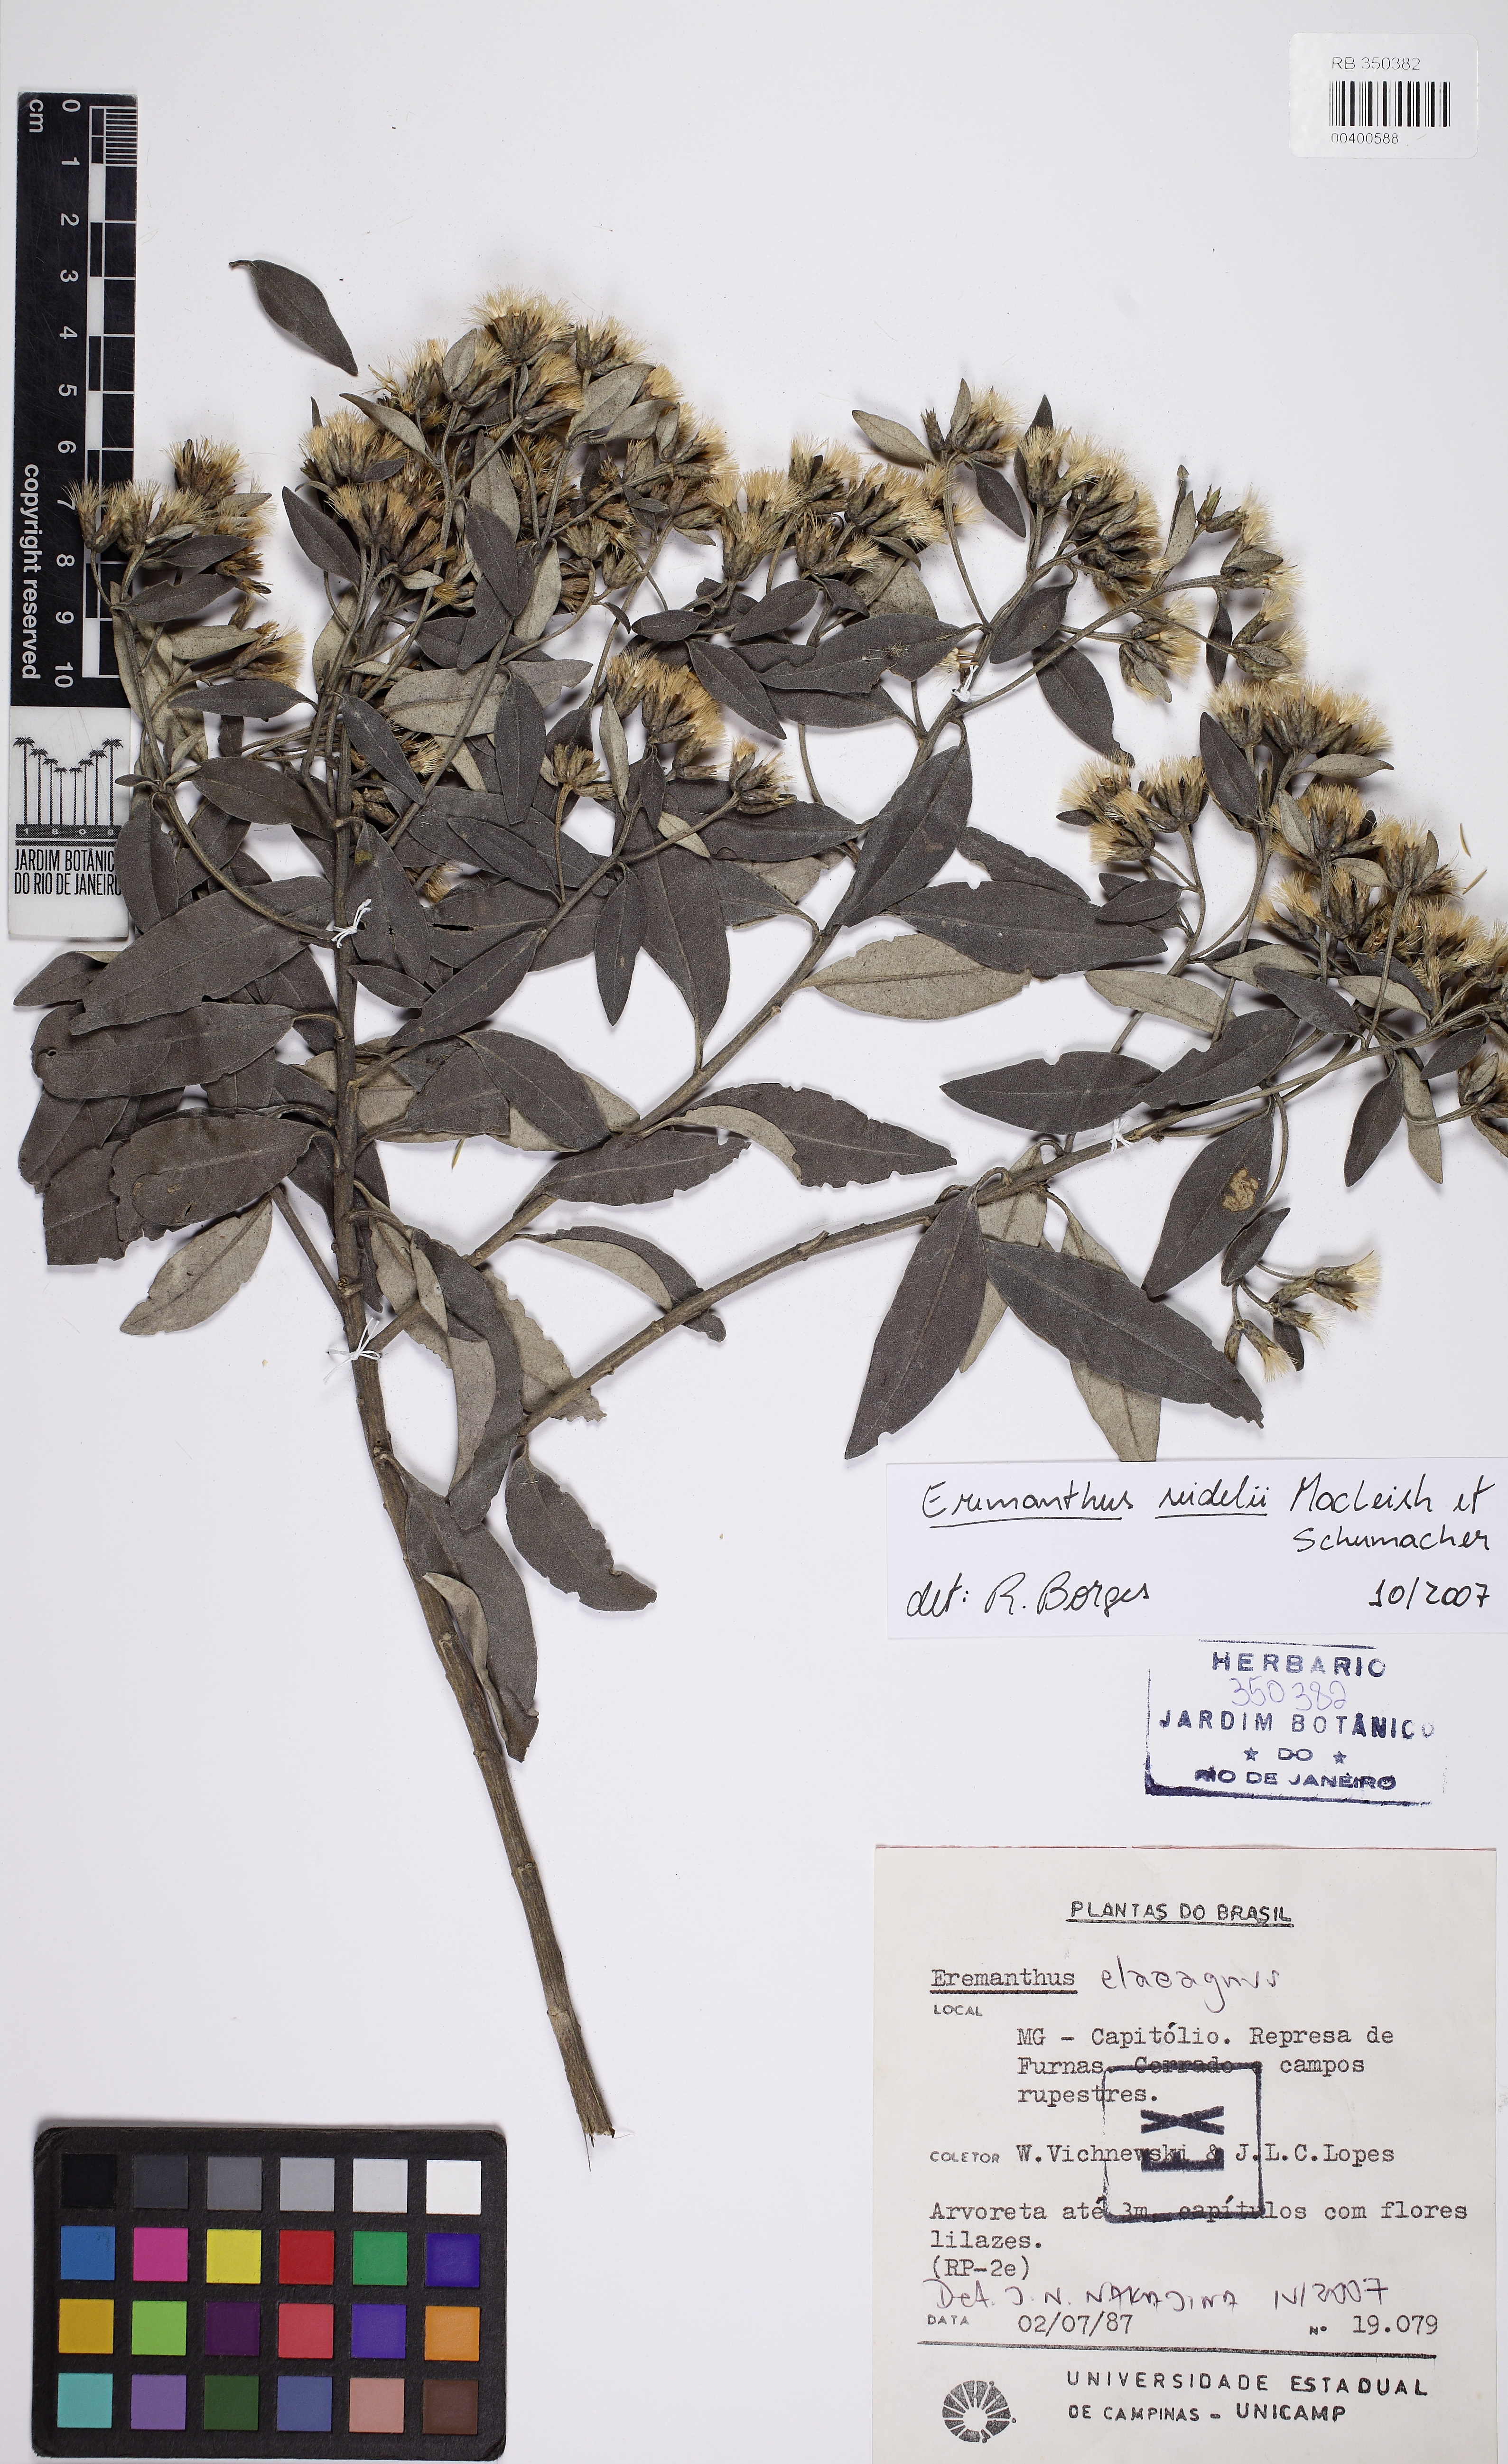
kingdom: Plantae
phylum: Tracheophyta
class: Magnoliopsida
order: Asterales
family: Asteraceae
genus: Eremanthus
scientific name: Eremanthus elaeagnus
